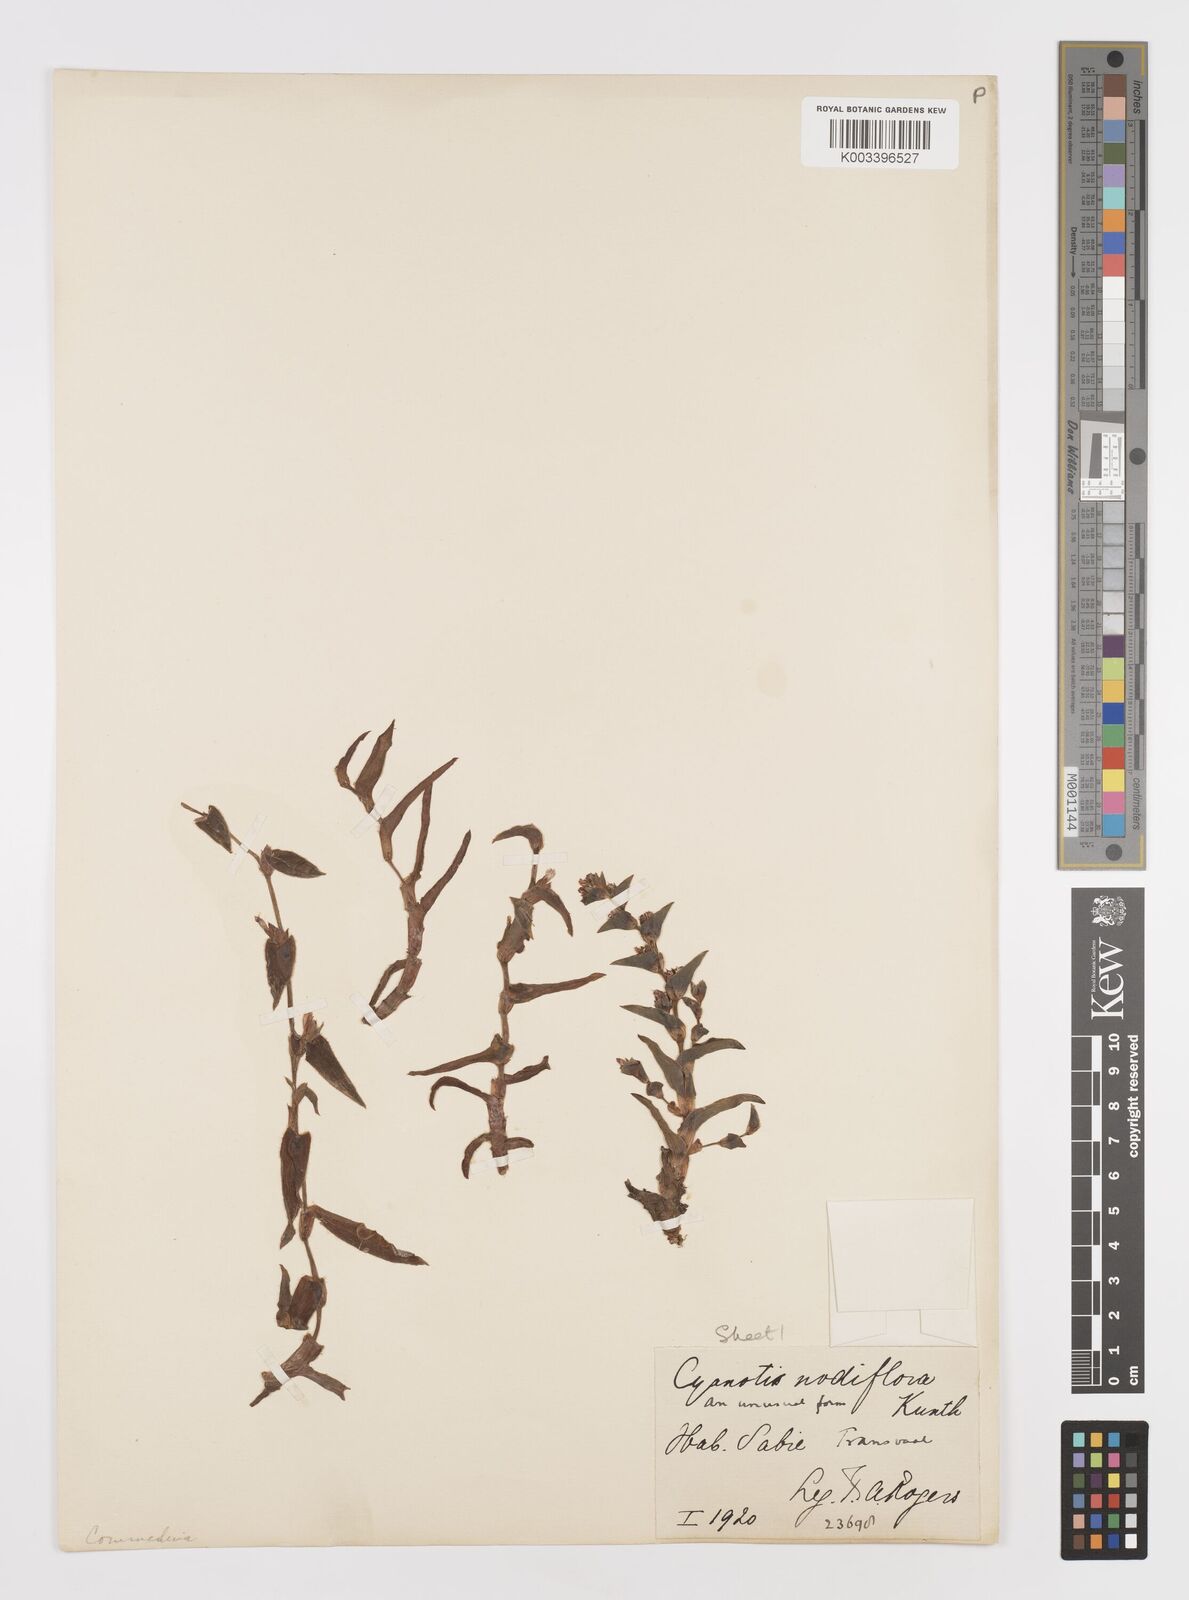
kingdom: Plantae
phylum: Tracheophyta
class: Liliopsida
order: Commelinales
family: Commelinaceae
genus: Cyanotis
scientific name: Cyanotis lapidosa
